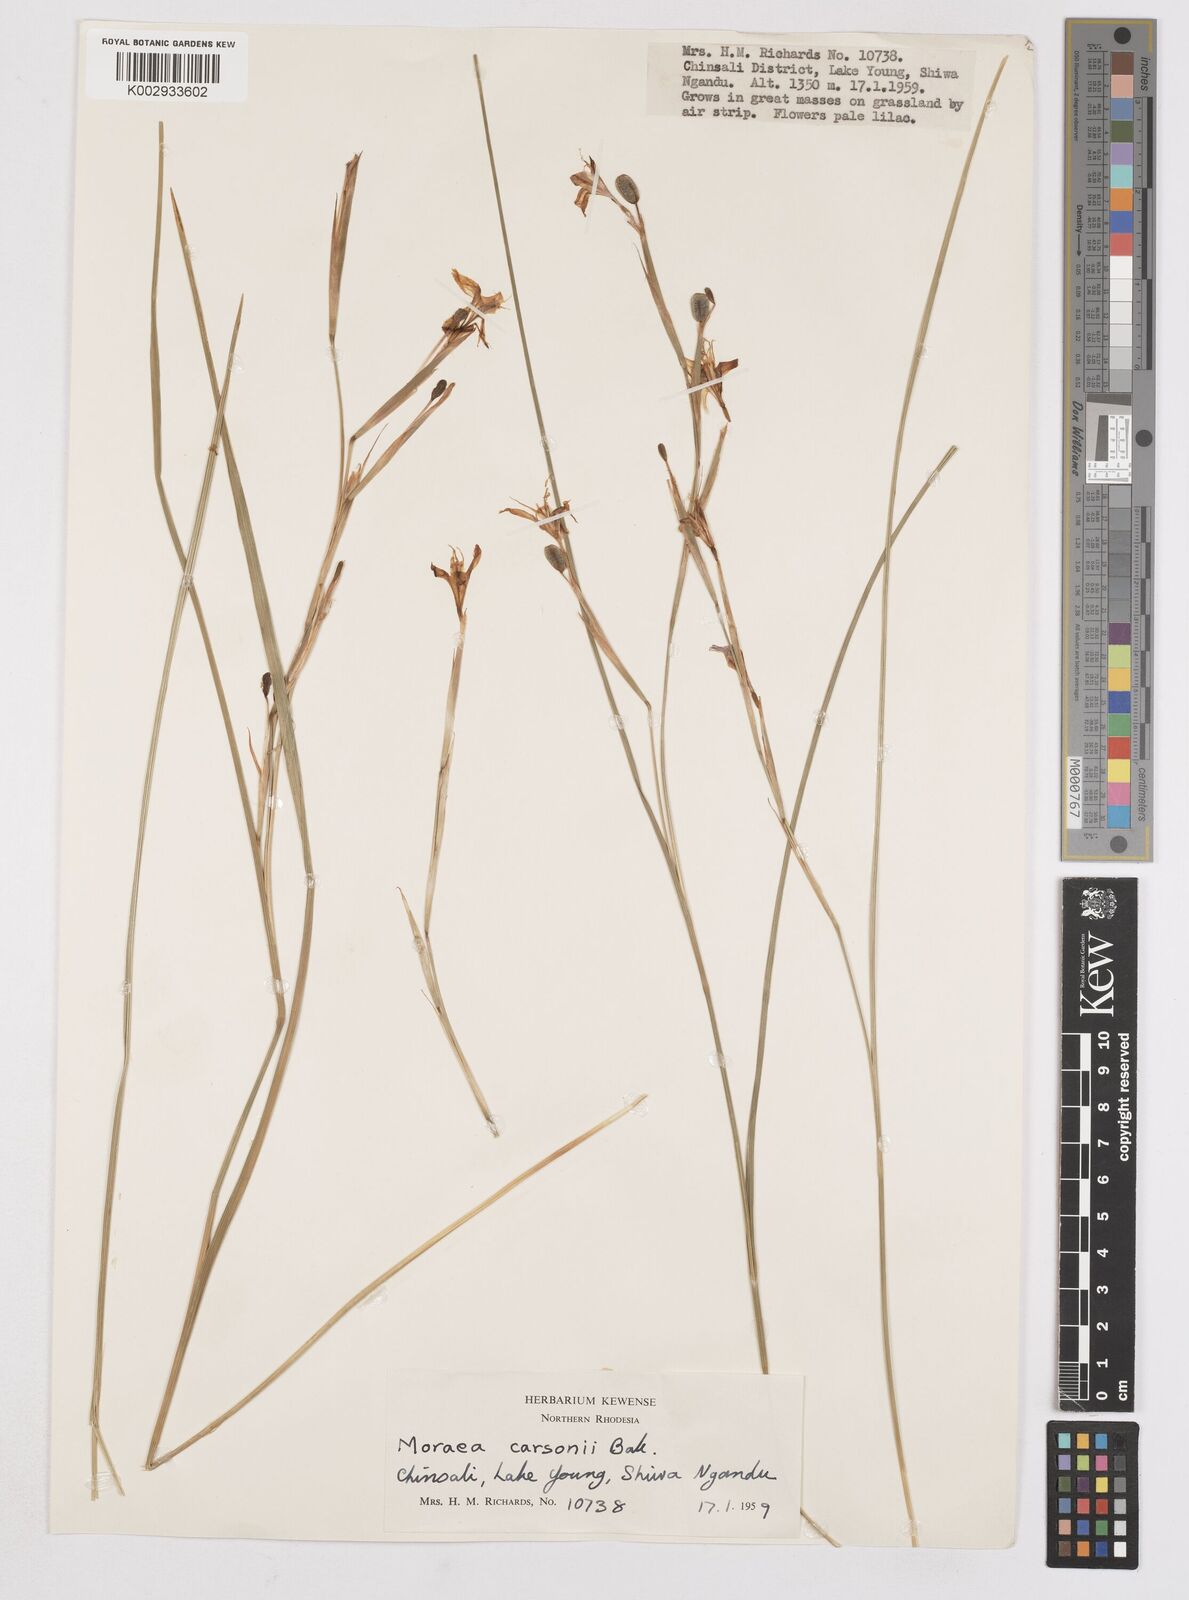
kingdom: Plantae
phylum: Tracheophyta
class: Liliopsida
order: Asparagales
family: Iridaceae
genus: Moraea
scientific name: Moraea carsonii
